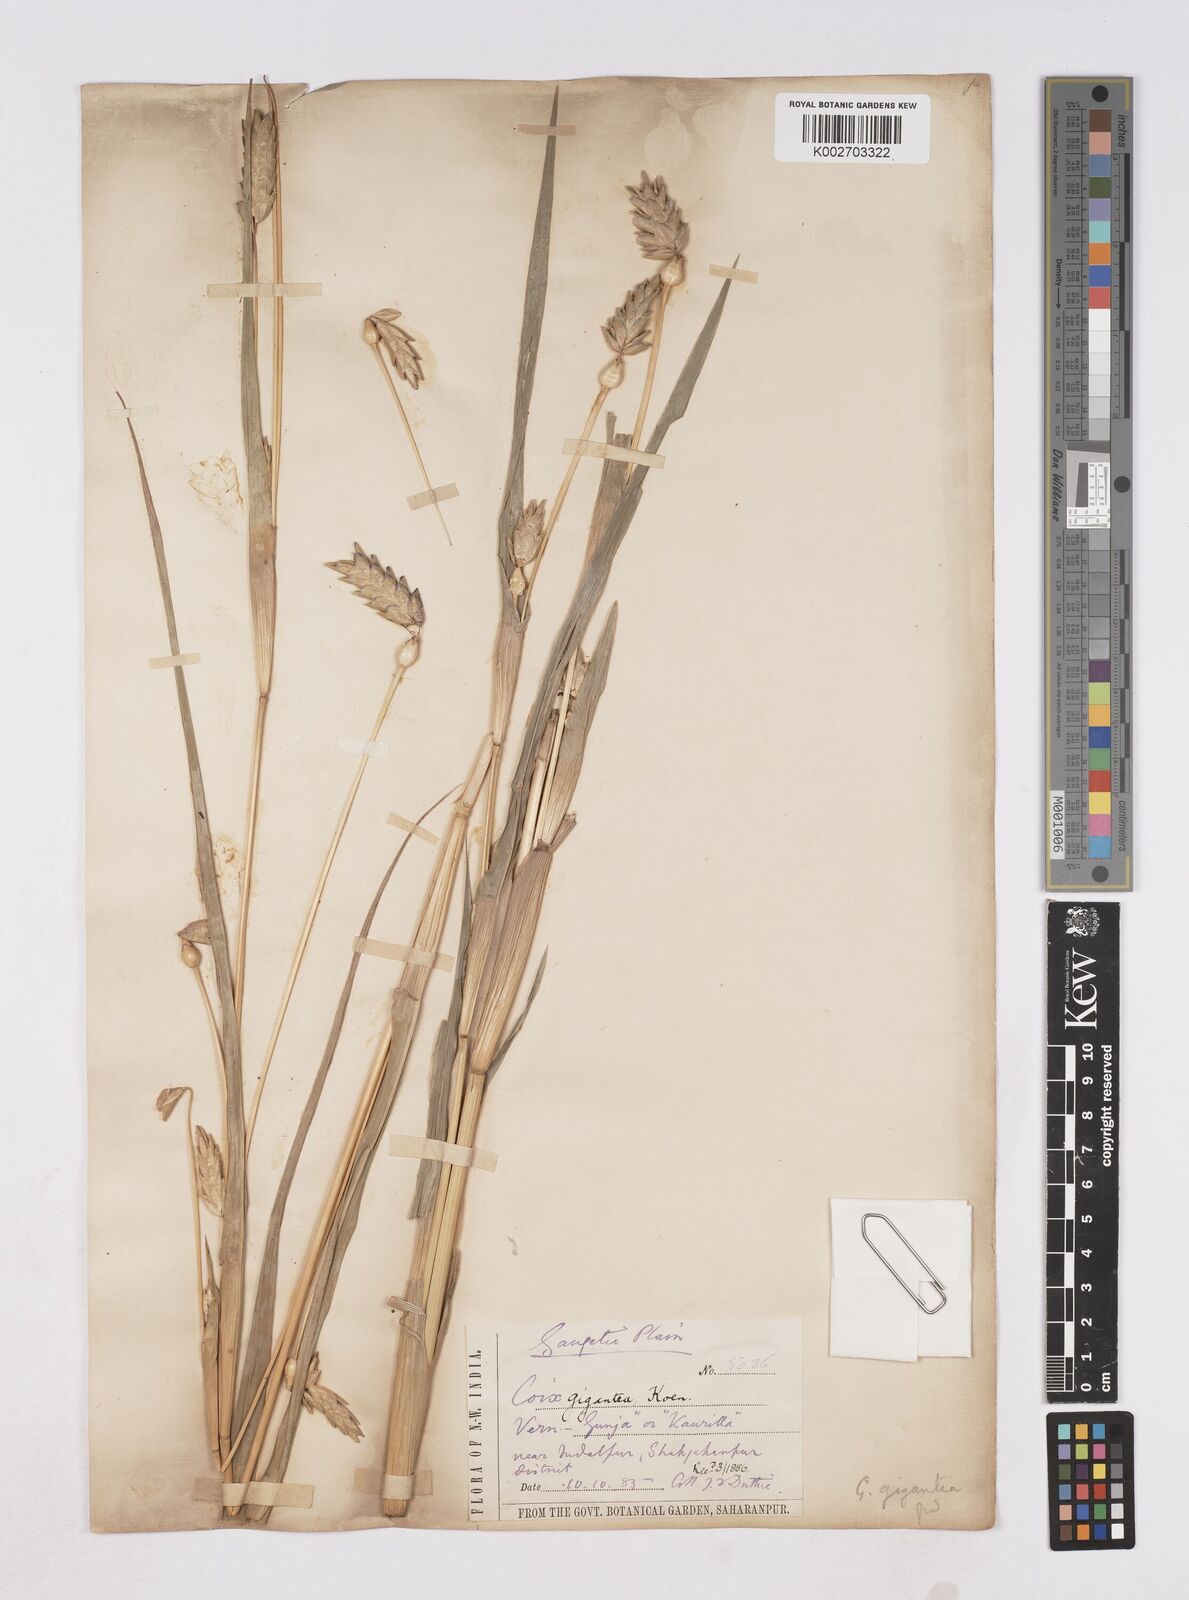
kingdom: Plantae
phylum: Tracheophyta
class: Liliopsida
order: Poales
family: Poaceae
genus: Coix
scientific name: Coix aquatica
